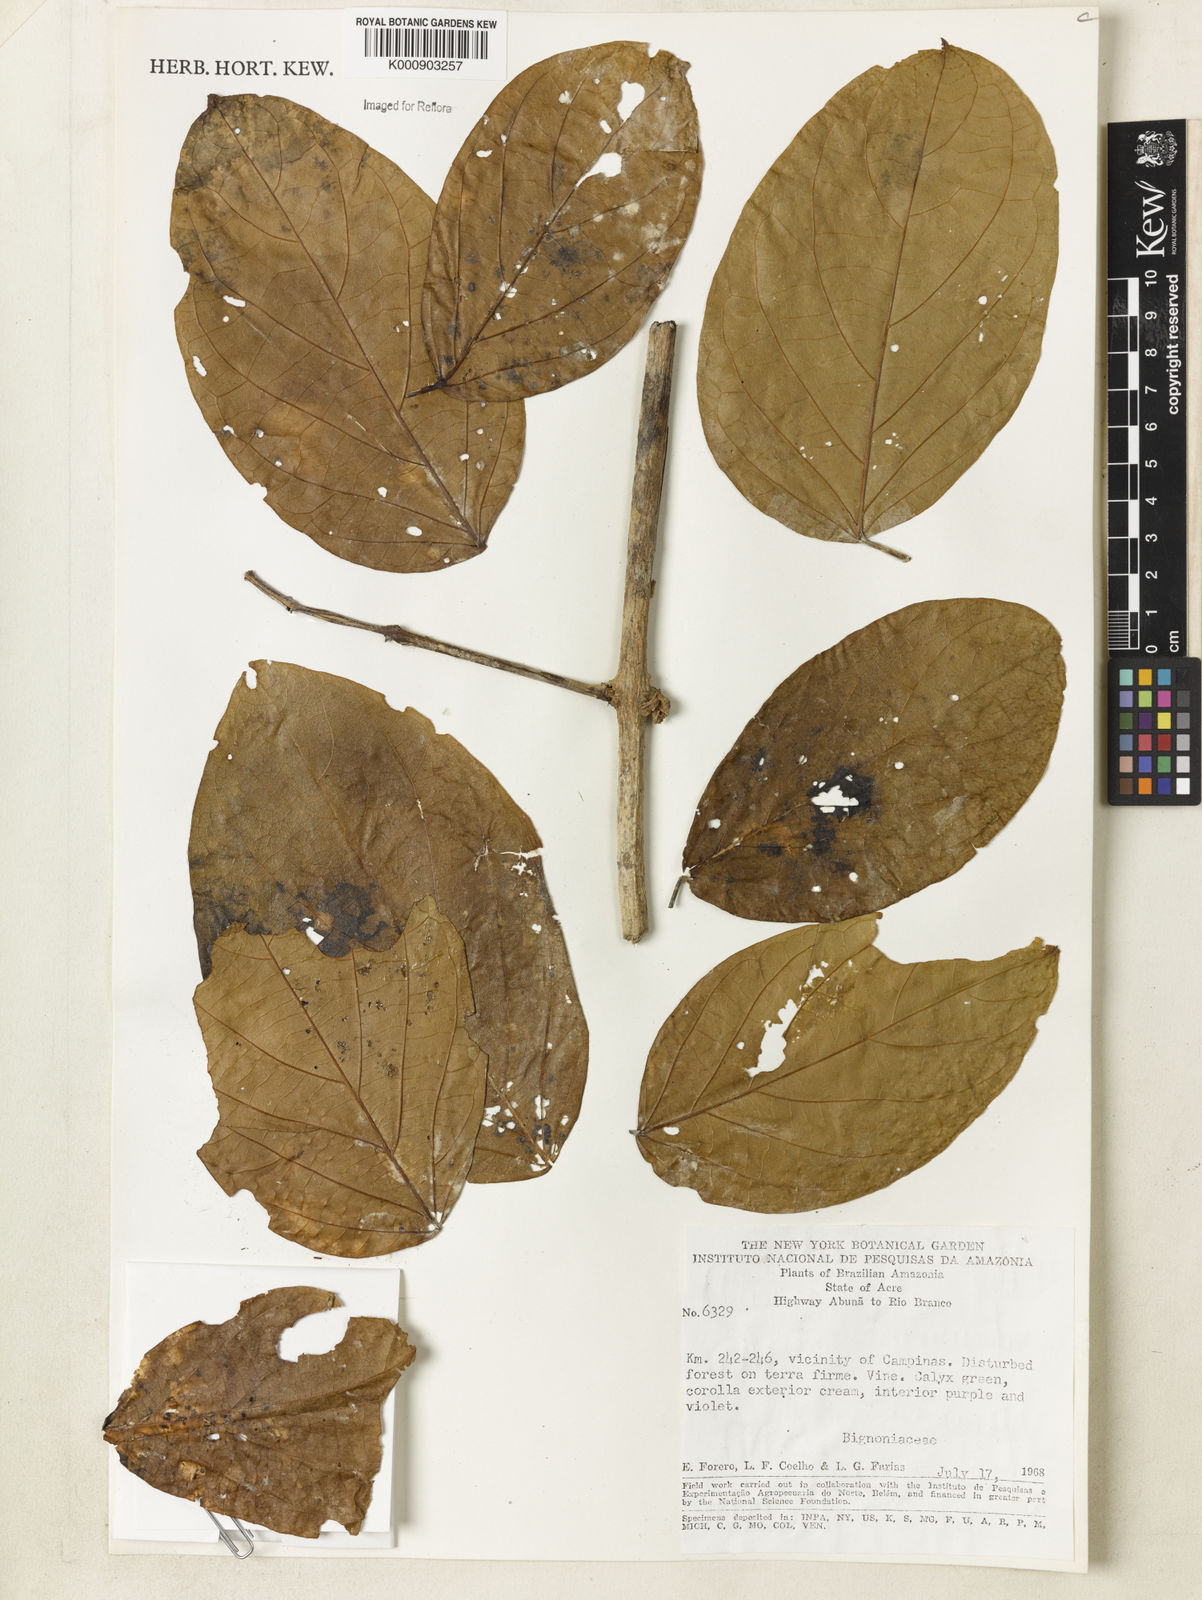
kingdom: Plantae
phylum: Tracheophyta
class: Magnoliopsida
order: Lamiales
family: Bignoniaceae
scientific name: Bignoniaceae
